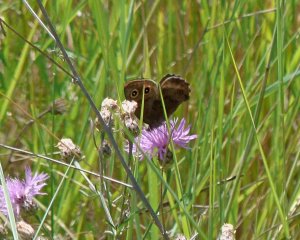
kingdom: Animalia
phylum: Arthropoda
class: Insecta
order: Lepidoptera
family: Nymphalidae
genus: Speyeria
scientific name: Speyeria zerene
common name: Zerene Fritillary
